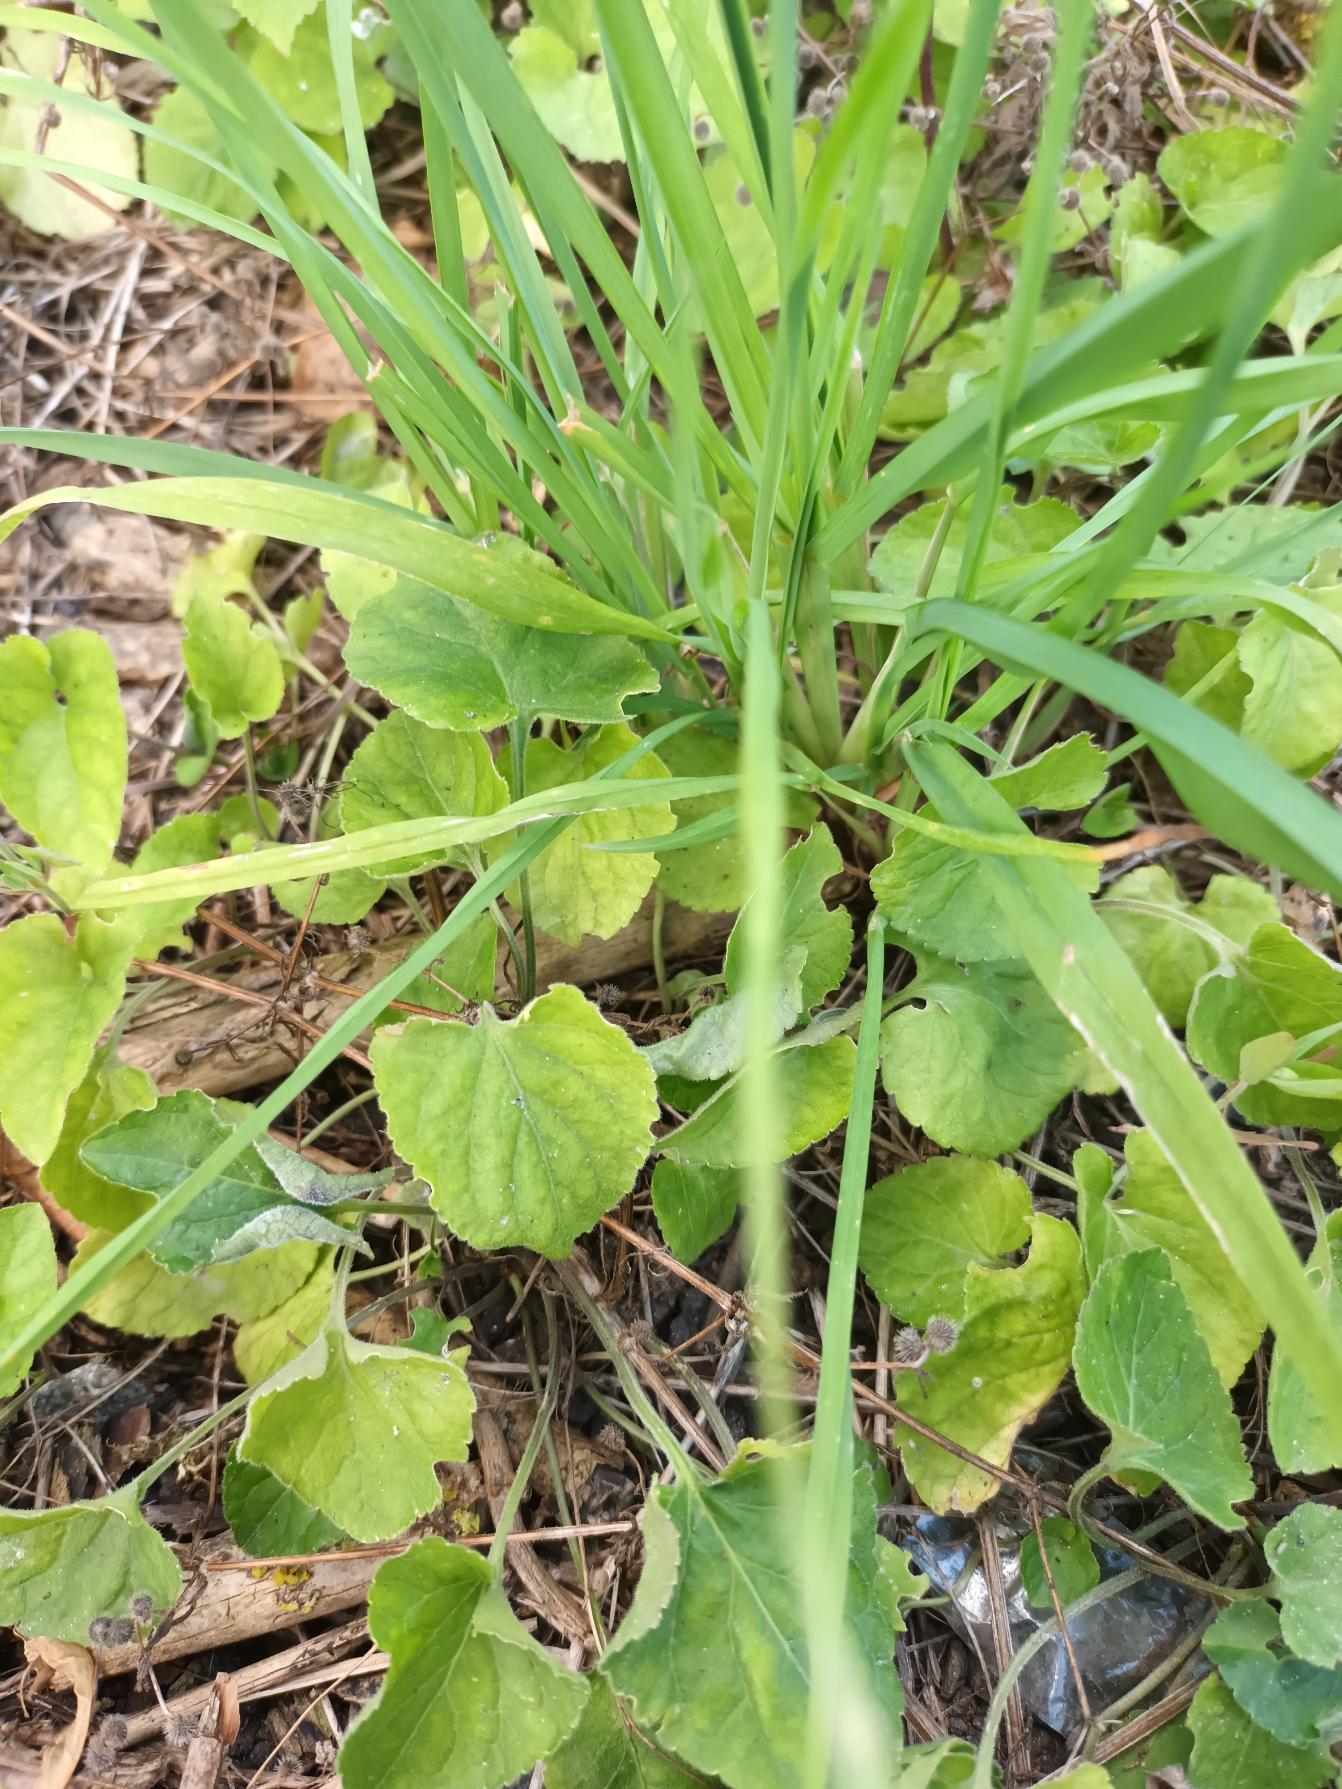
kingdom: Plantae
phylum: Tracheophyta
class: Magnoliopsida
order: Malpighiales
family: Violaceae
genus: Viola
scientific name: Viola odorata
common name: Marts-viol
